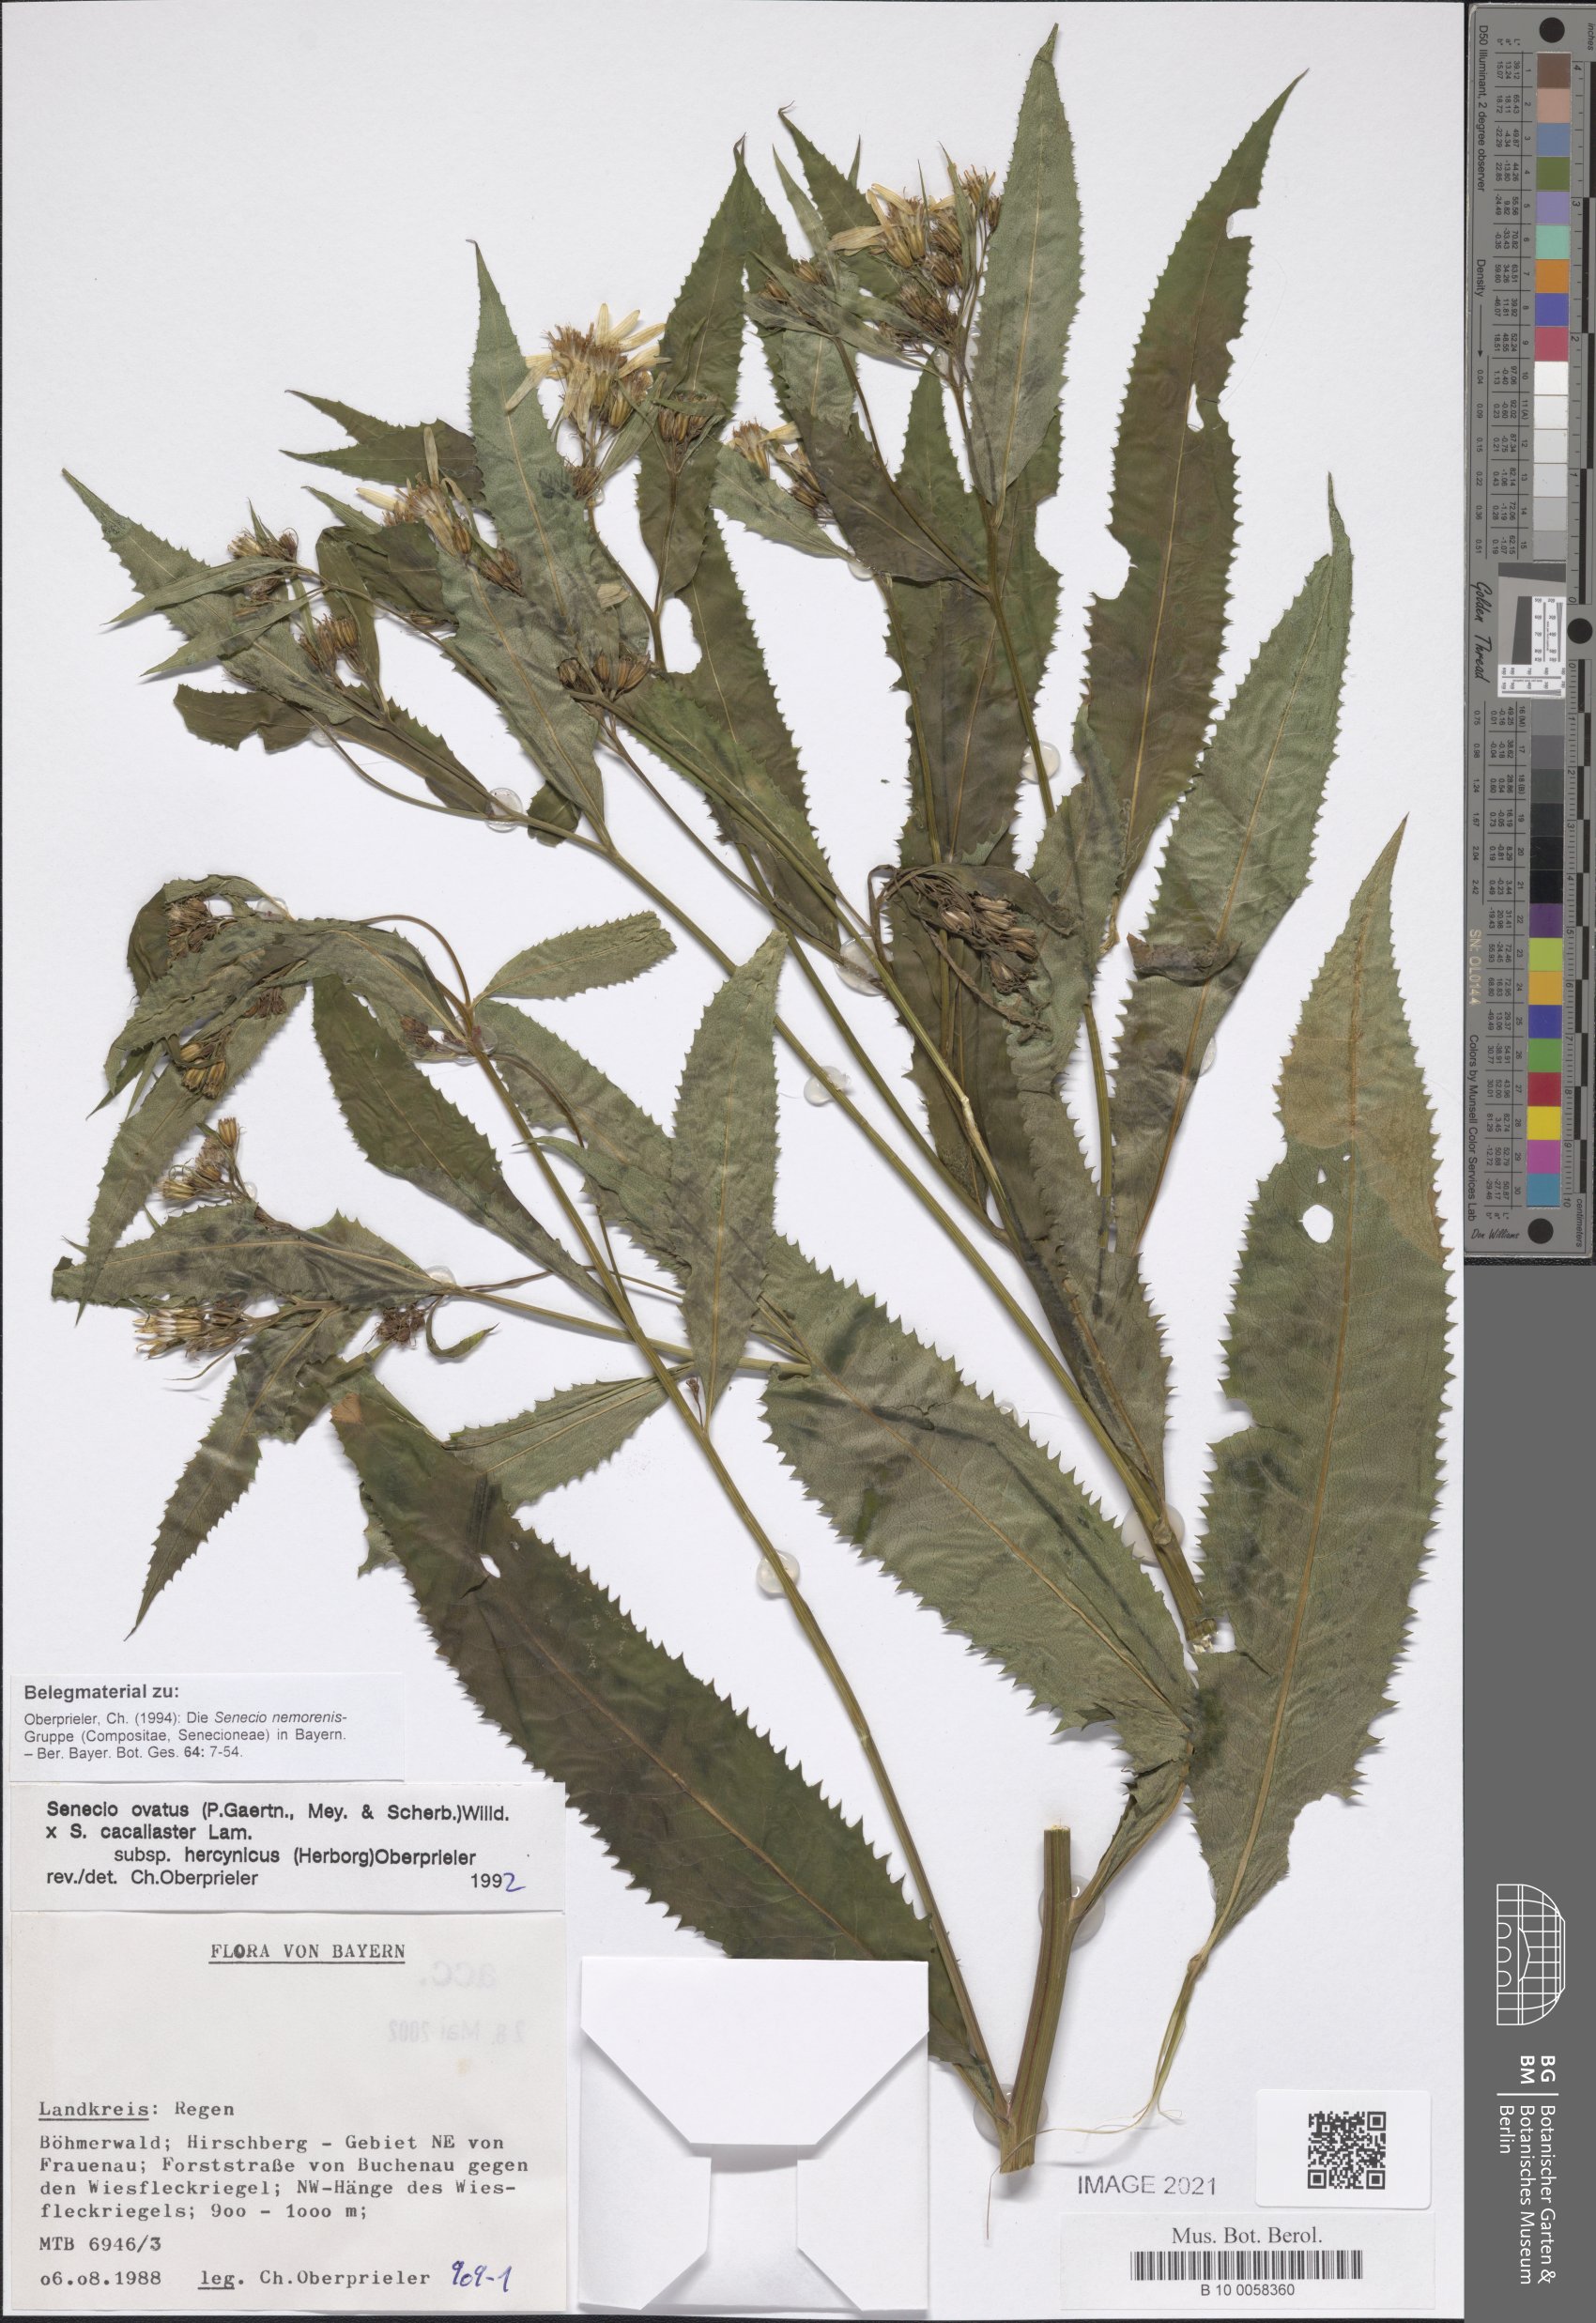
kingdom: Plantae
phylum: Tracheophyta
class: Magnoliopsida
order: Asterales
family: Asteraceae
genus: Senecio
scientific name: Senecio ovatus
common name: Wood ragwort
